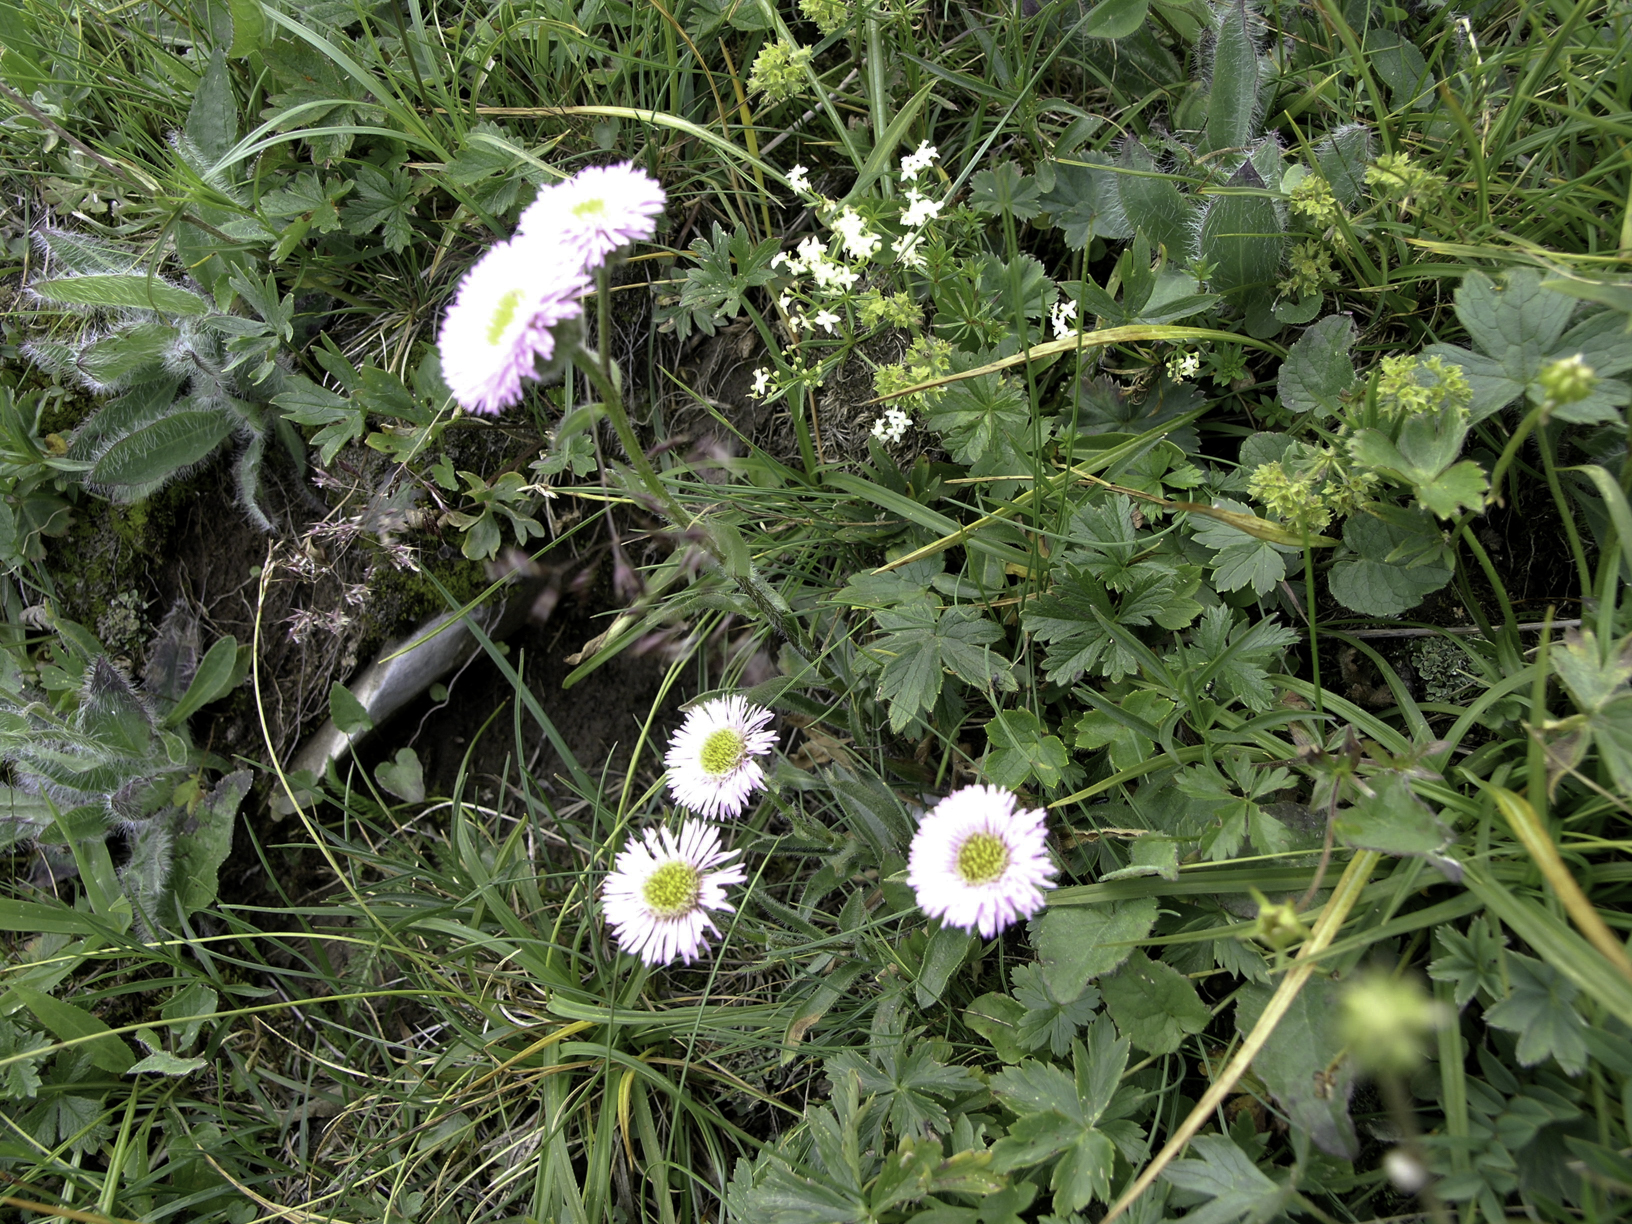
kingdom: Plantae
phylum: Tracheophyta
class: Magnoliopsida
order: Asterales
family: Asteraceae
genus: Erigeron
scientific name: Erigeron neglectus
